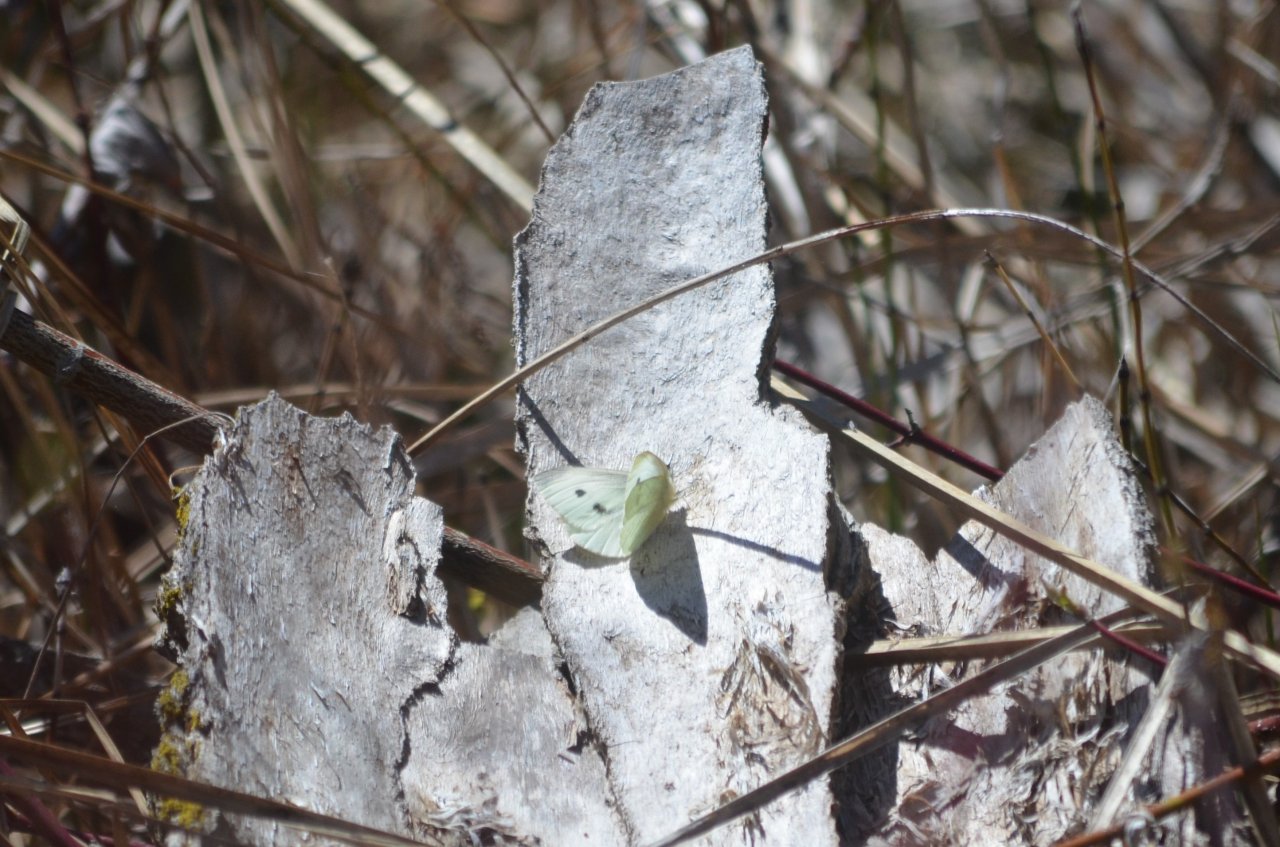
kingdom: Animalia
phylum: Arthropoda
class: Insecta
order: Lepidoptera
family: Pieridae
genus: Pieris
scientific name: Pieris rapae
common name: Cabbage White
